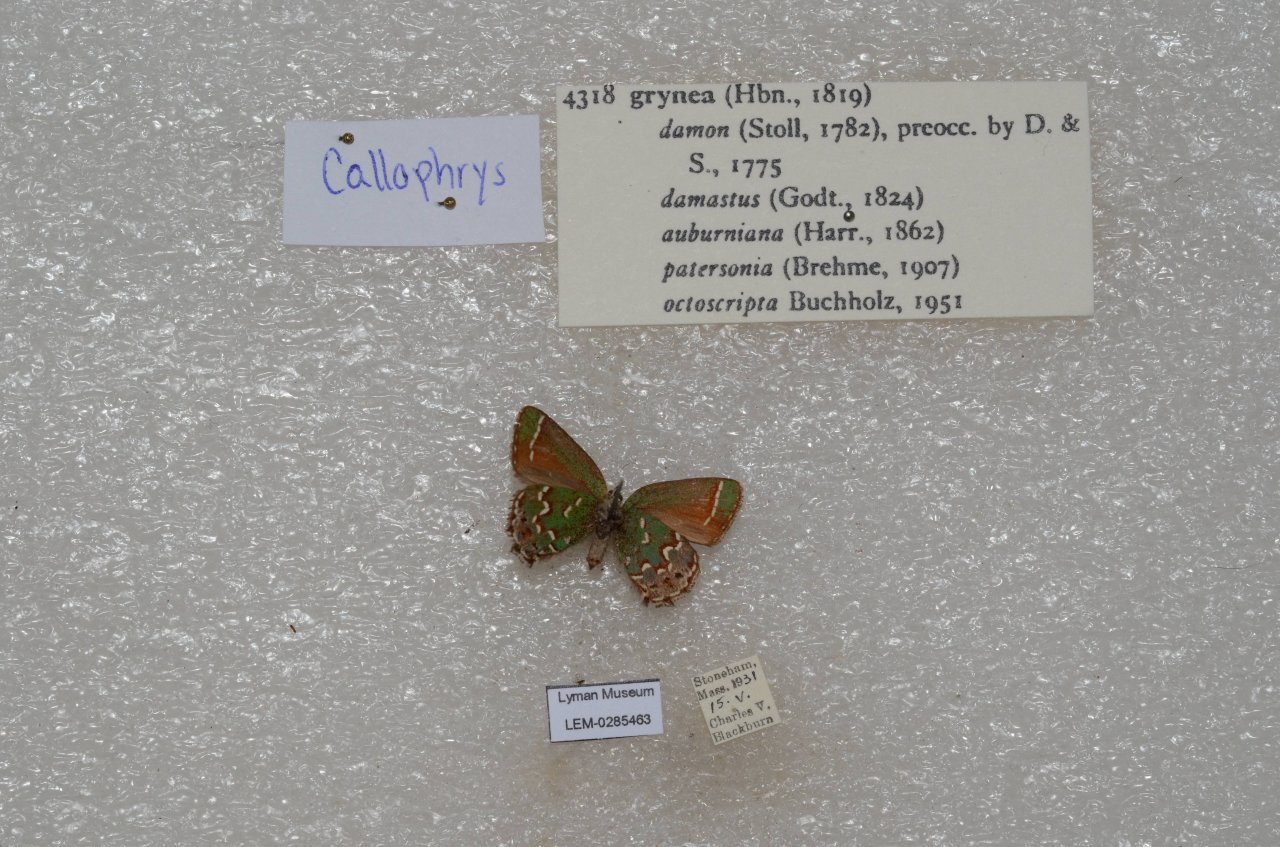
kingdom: Animalia
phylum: Arthropoda
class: Insecta
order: Lepidoptera
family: Lycaenidae
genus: Mitoura
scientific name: Mitoura gryneus
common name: Juniper Hairstreak
